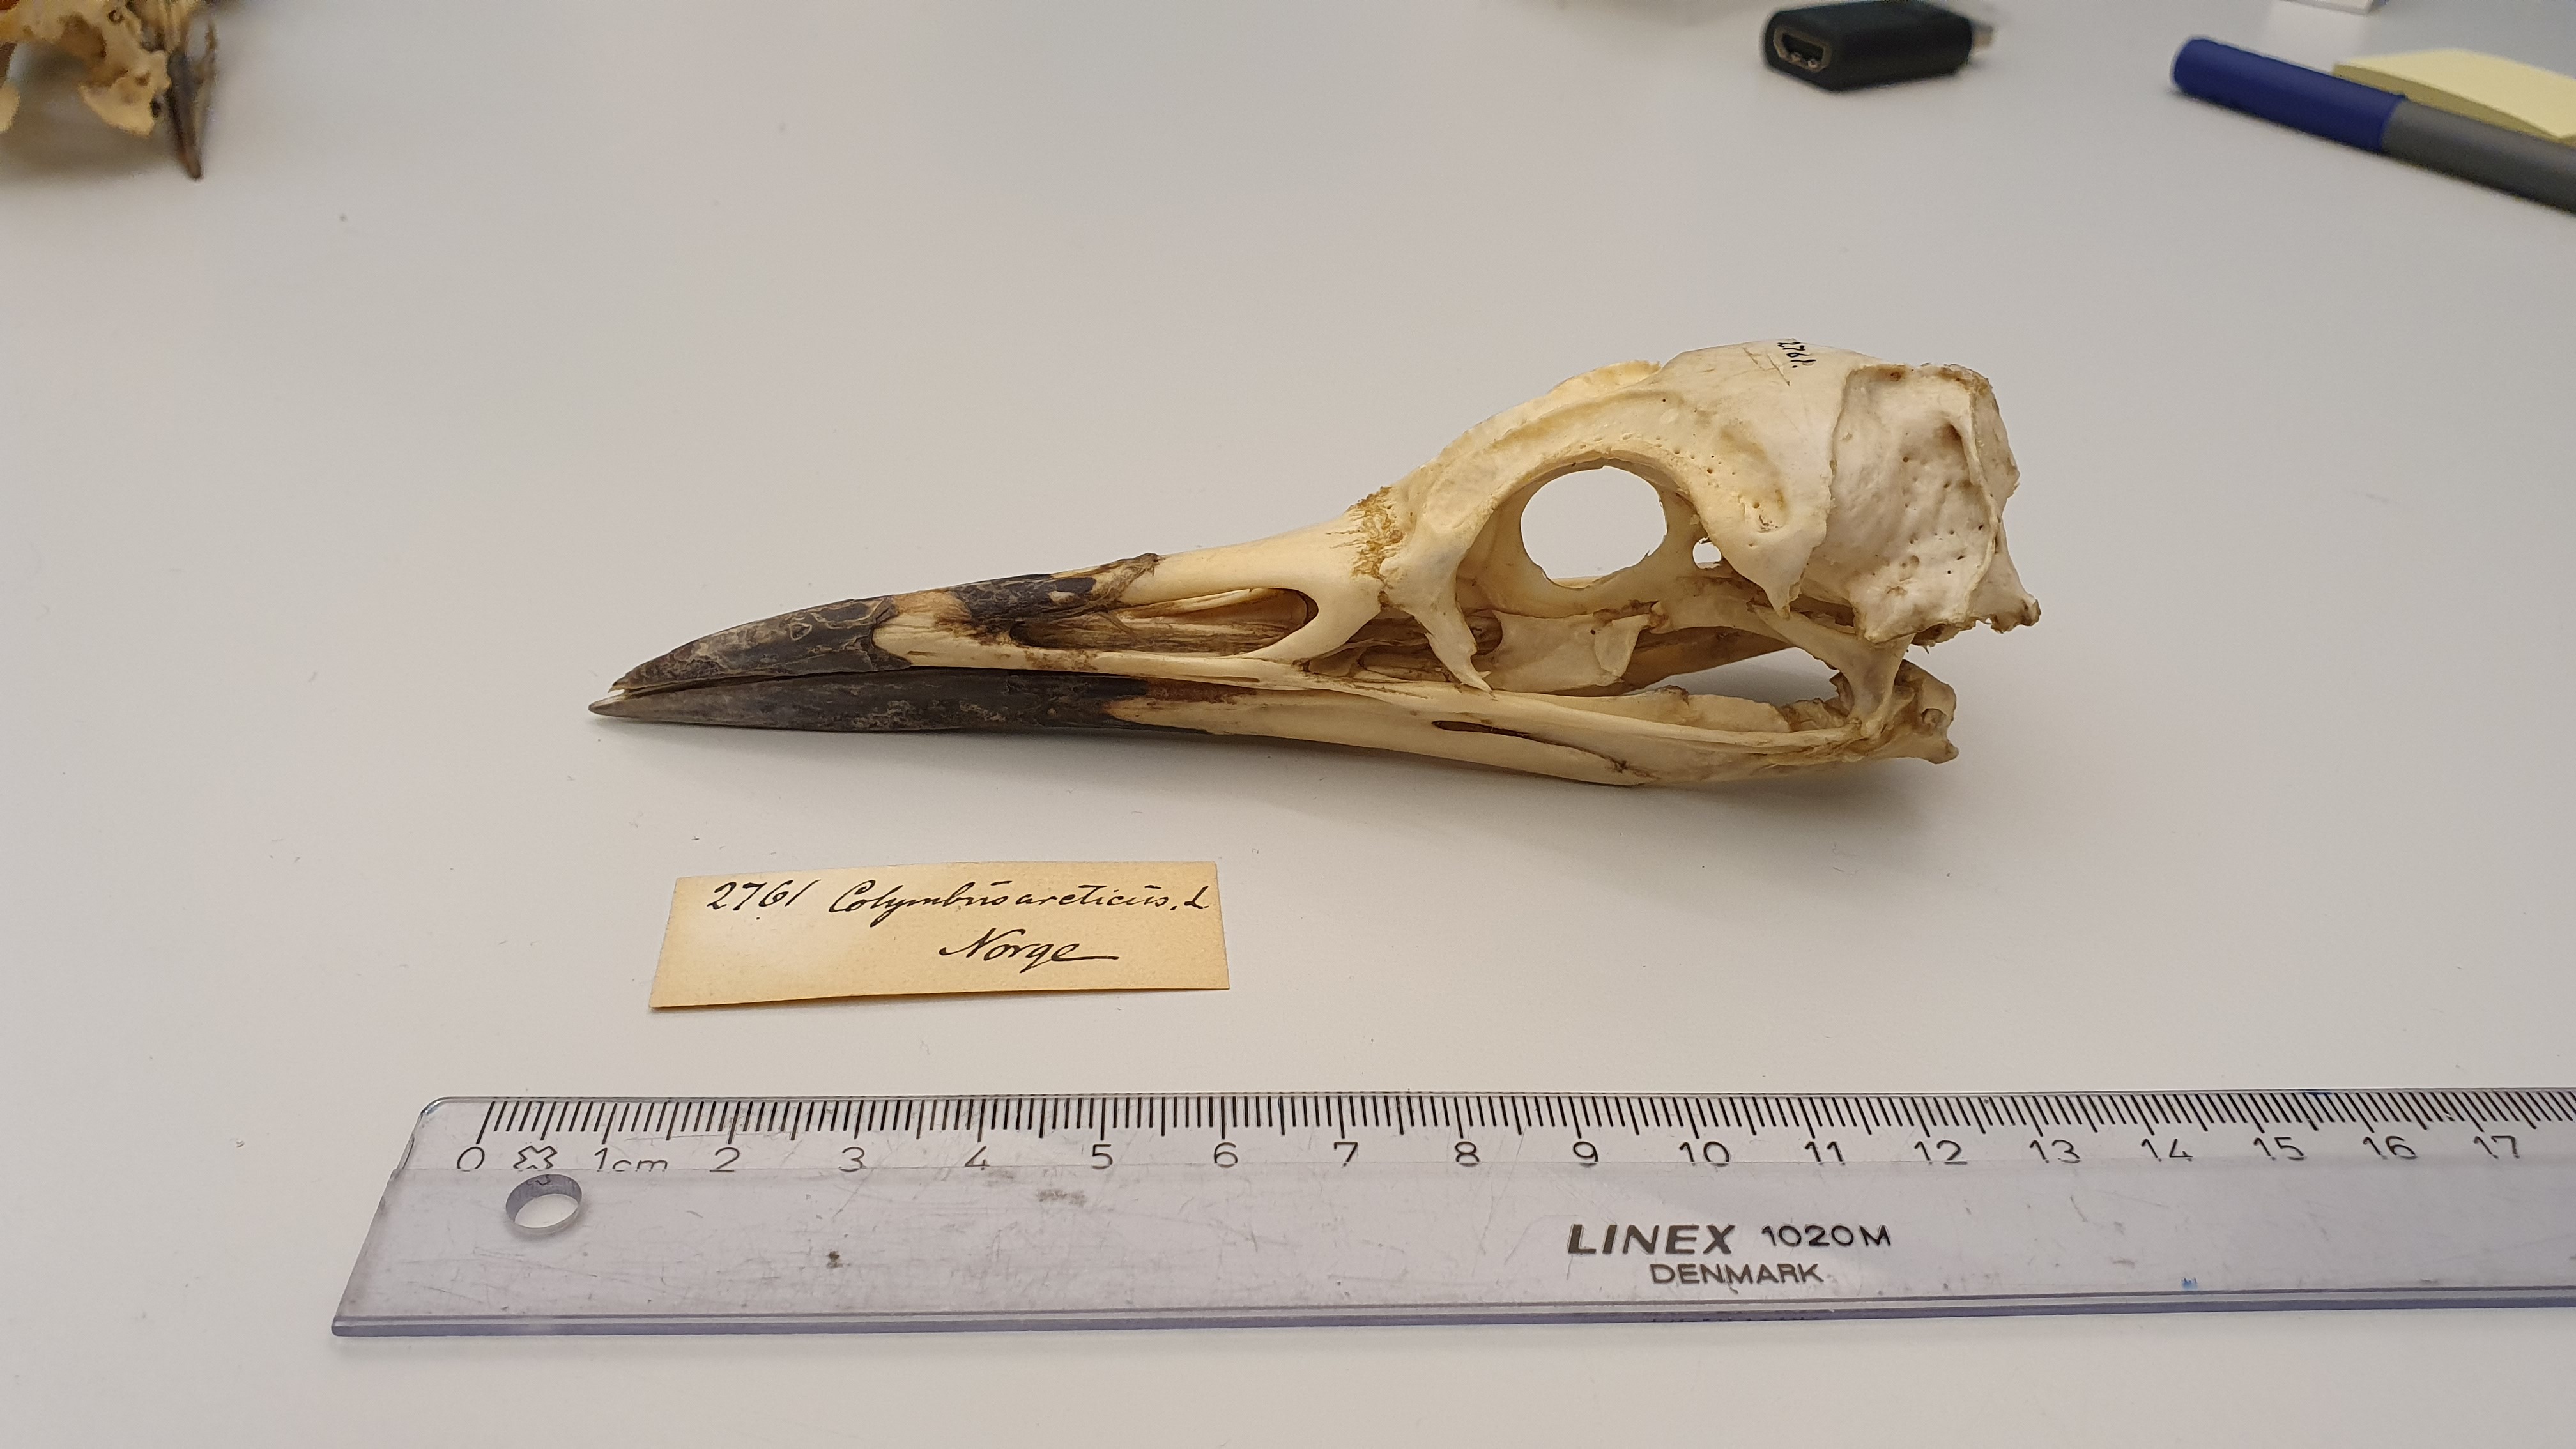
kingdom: Animalia
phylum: Chordata
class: Aves
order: Gaviiformes
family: Gaviidae
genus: Gavia
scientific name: Gavia arctica
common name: Black-throated loon
